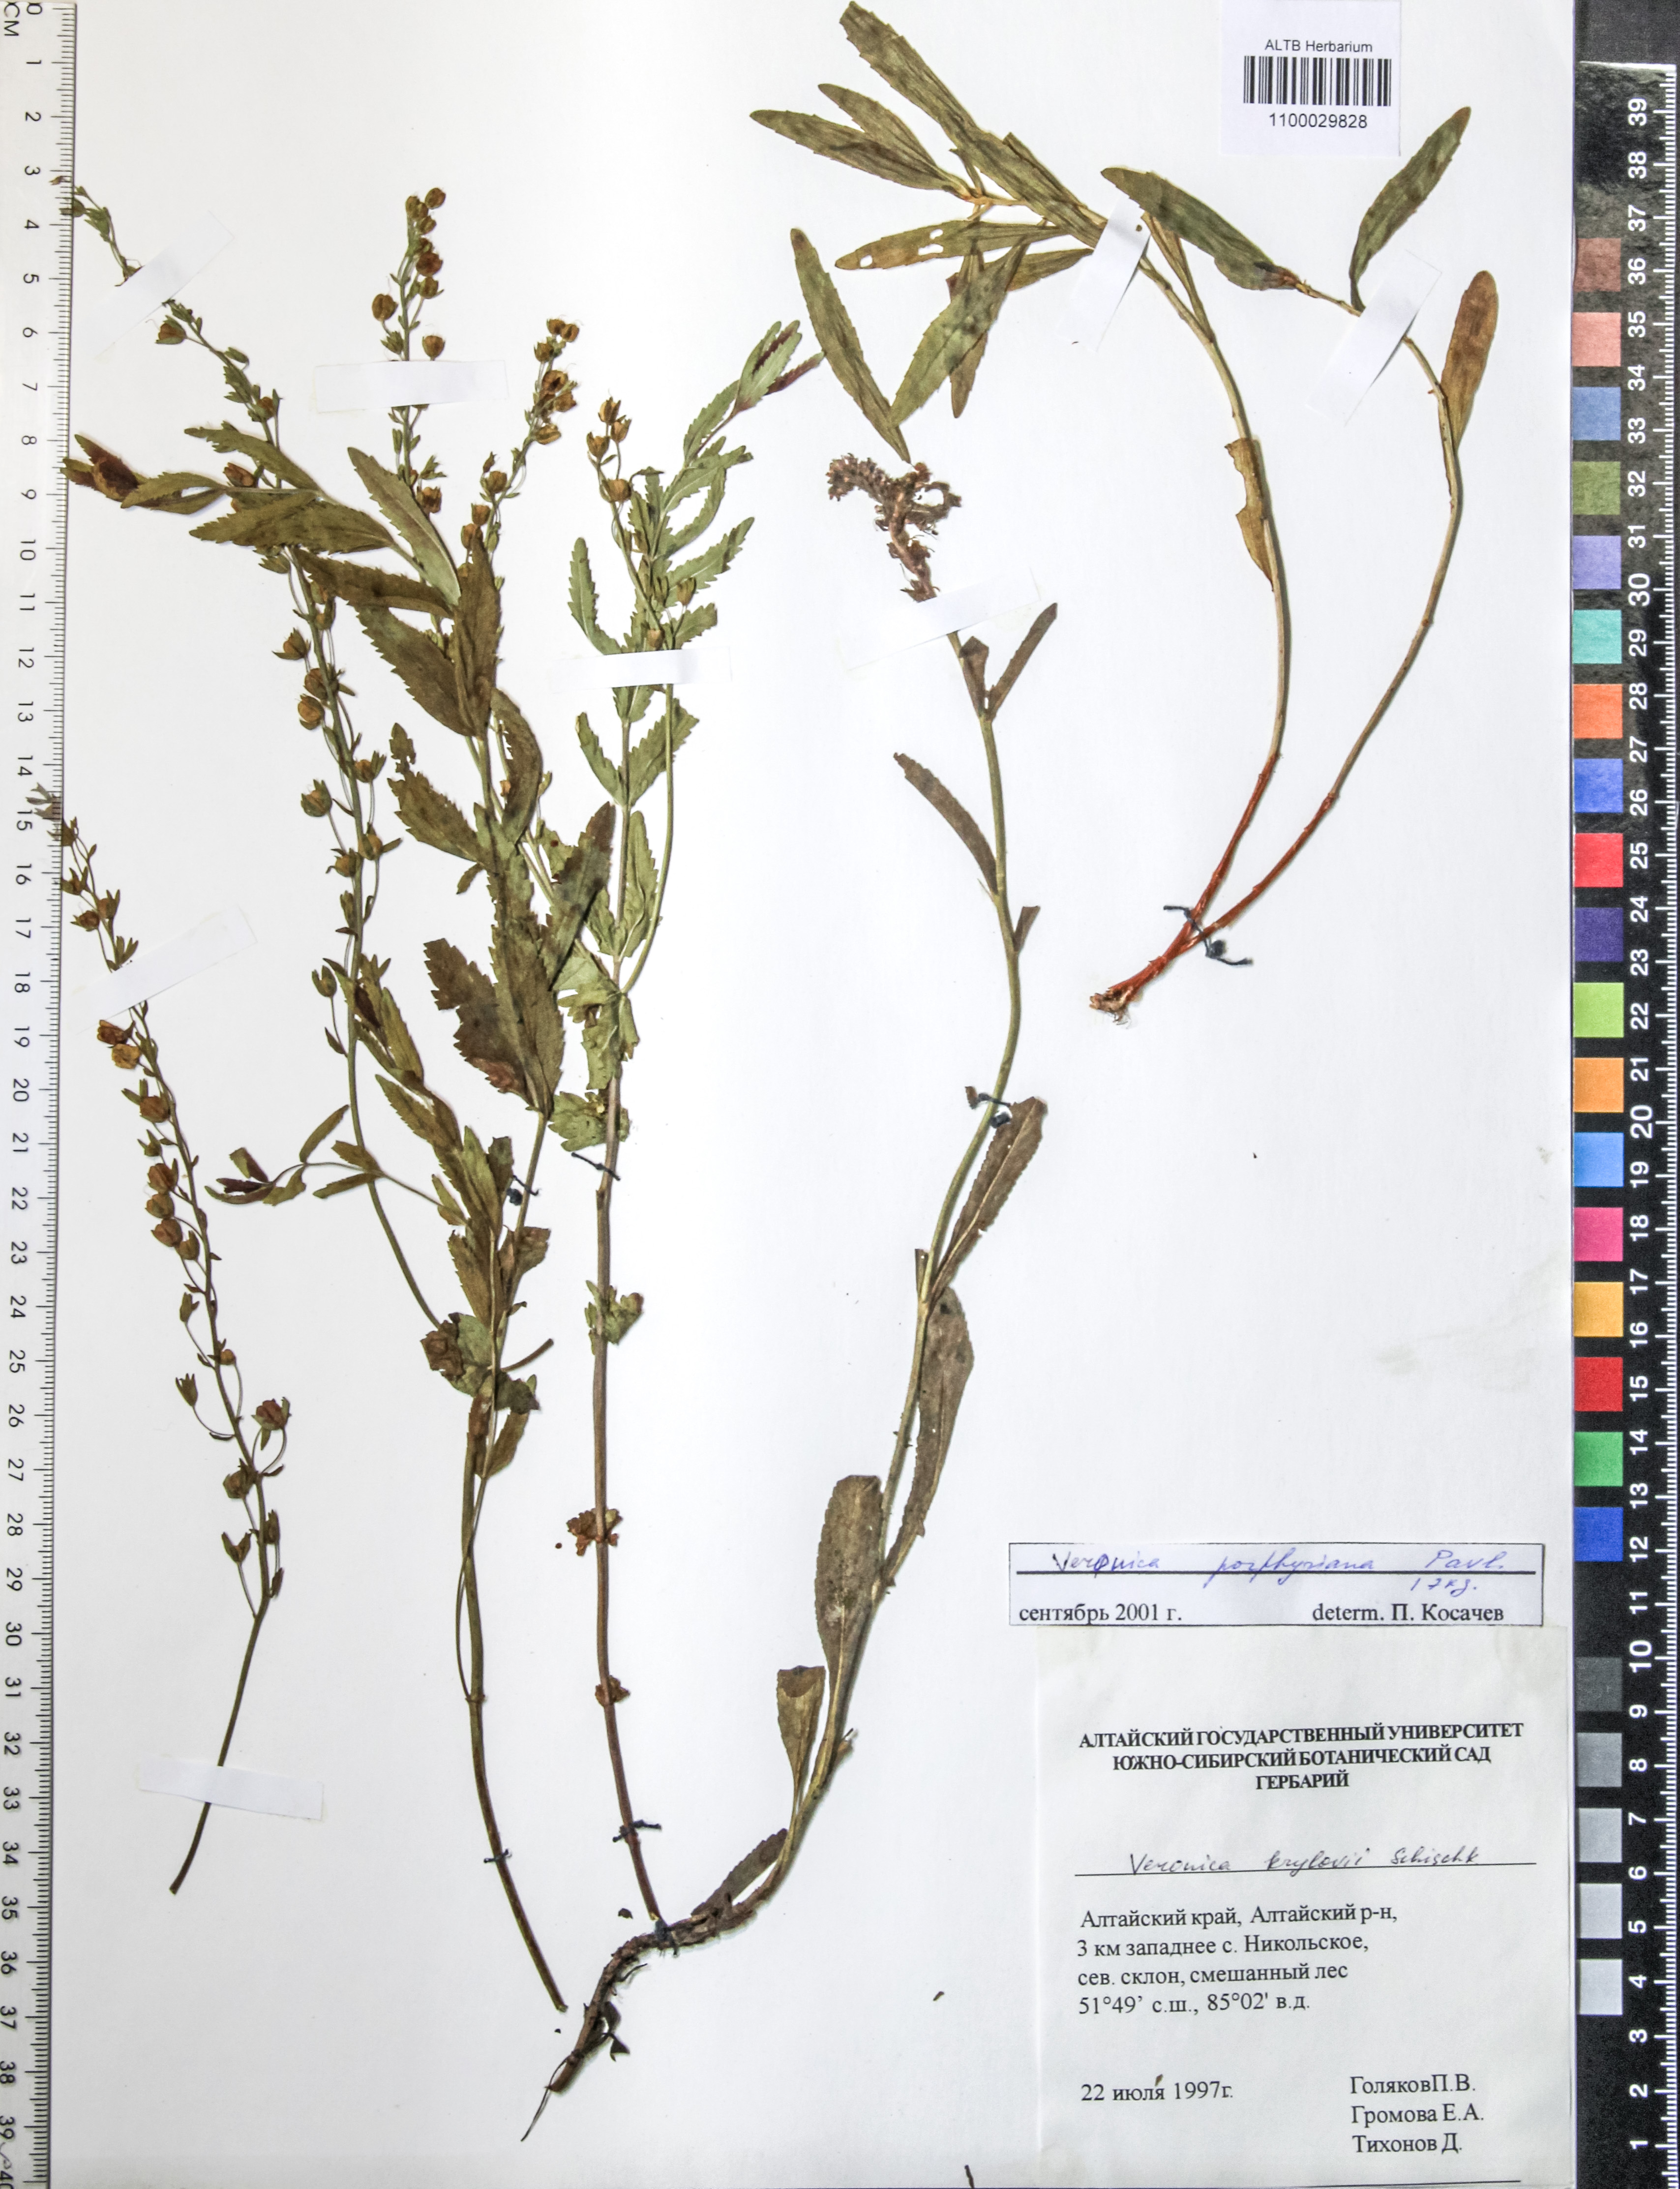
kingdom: Plantae
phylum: Tracheophyta
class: Magnoliopsida
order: Lamiales
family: Plantaginaceae
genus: Veronica
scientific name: Veronica porphyriana
